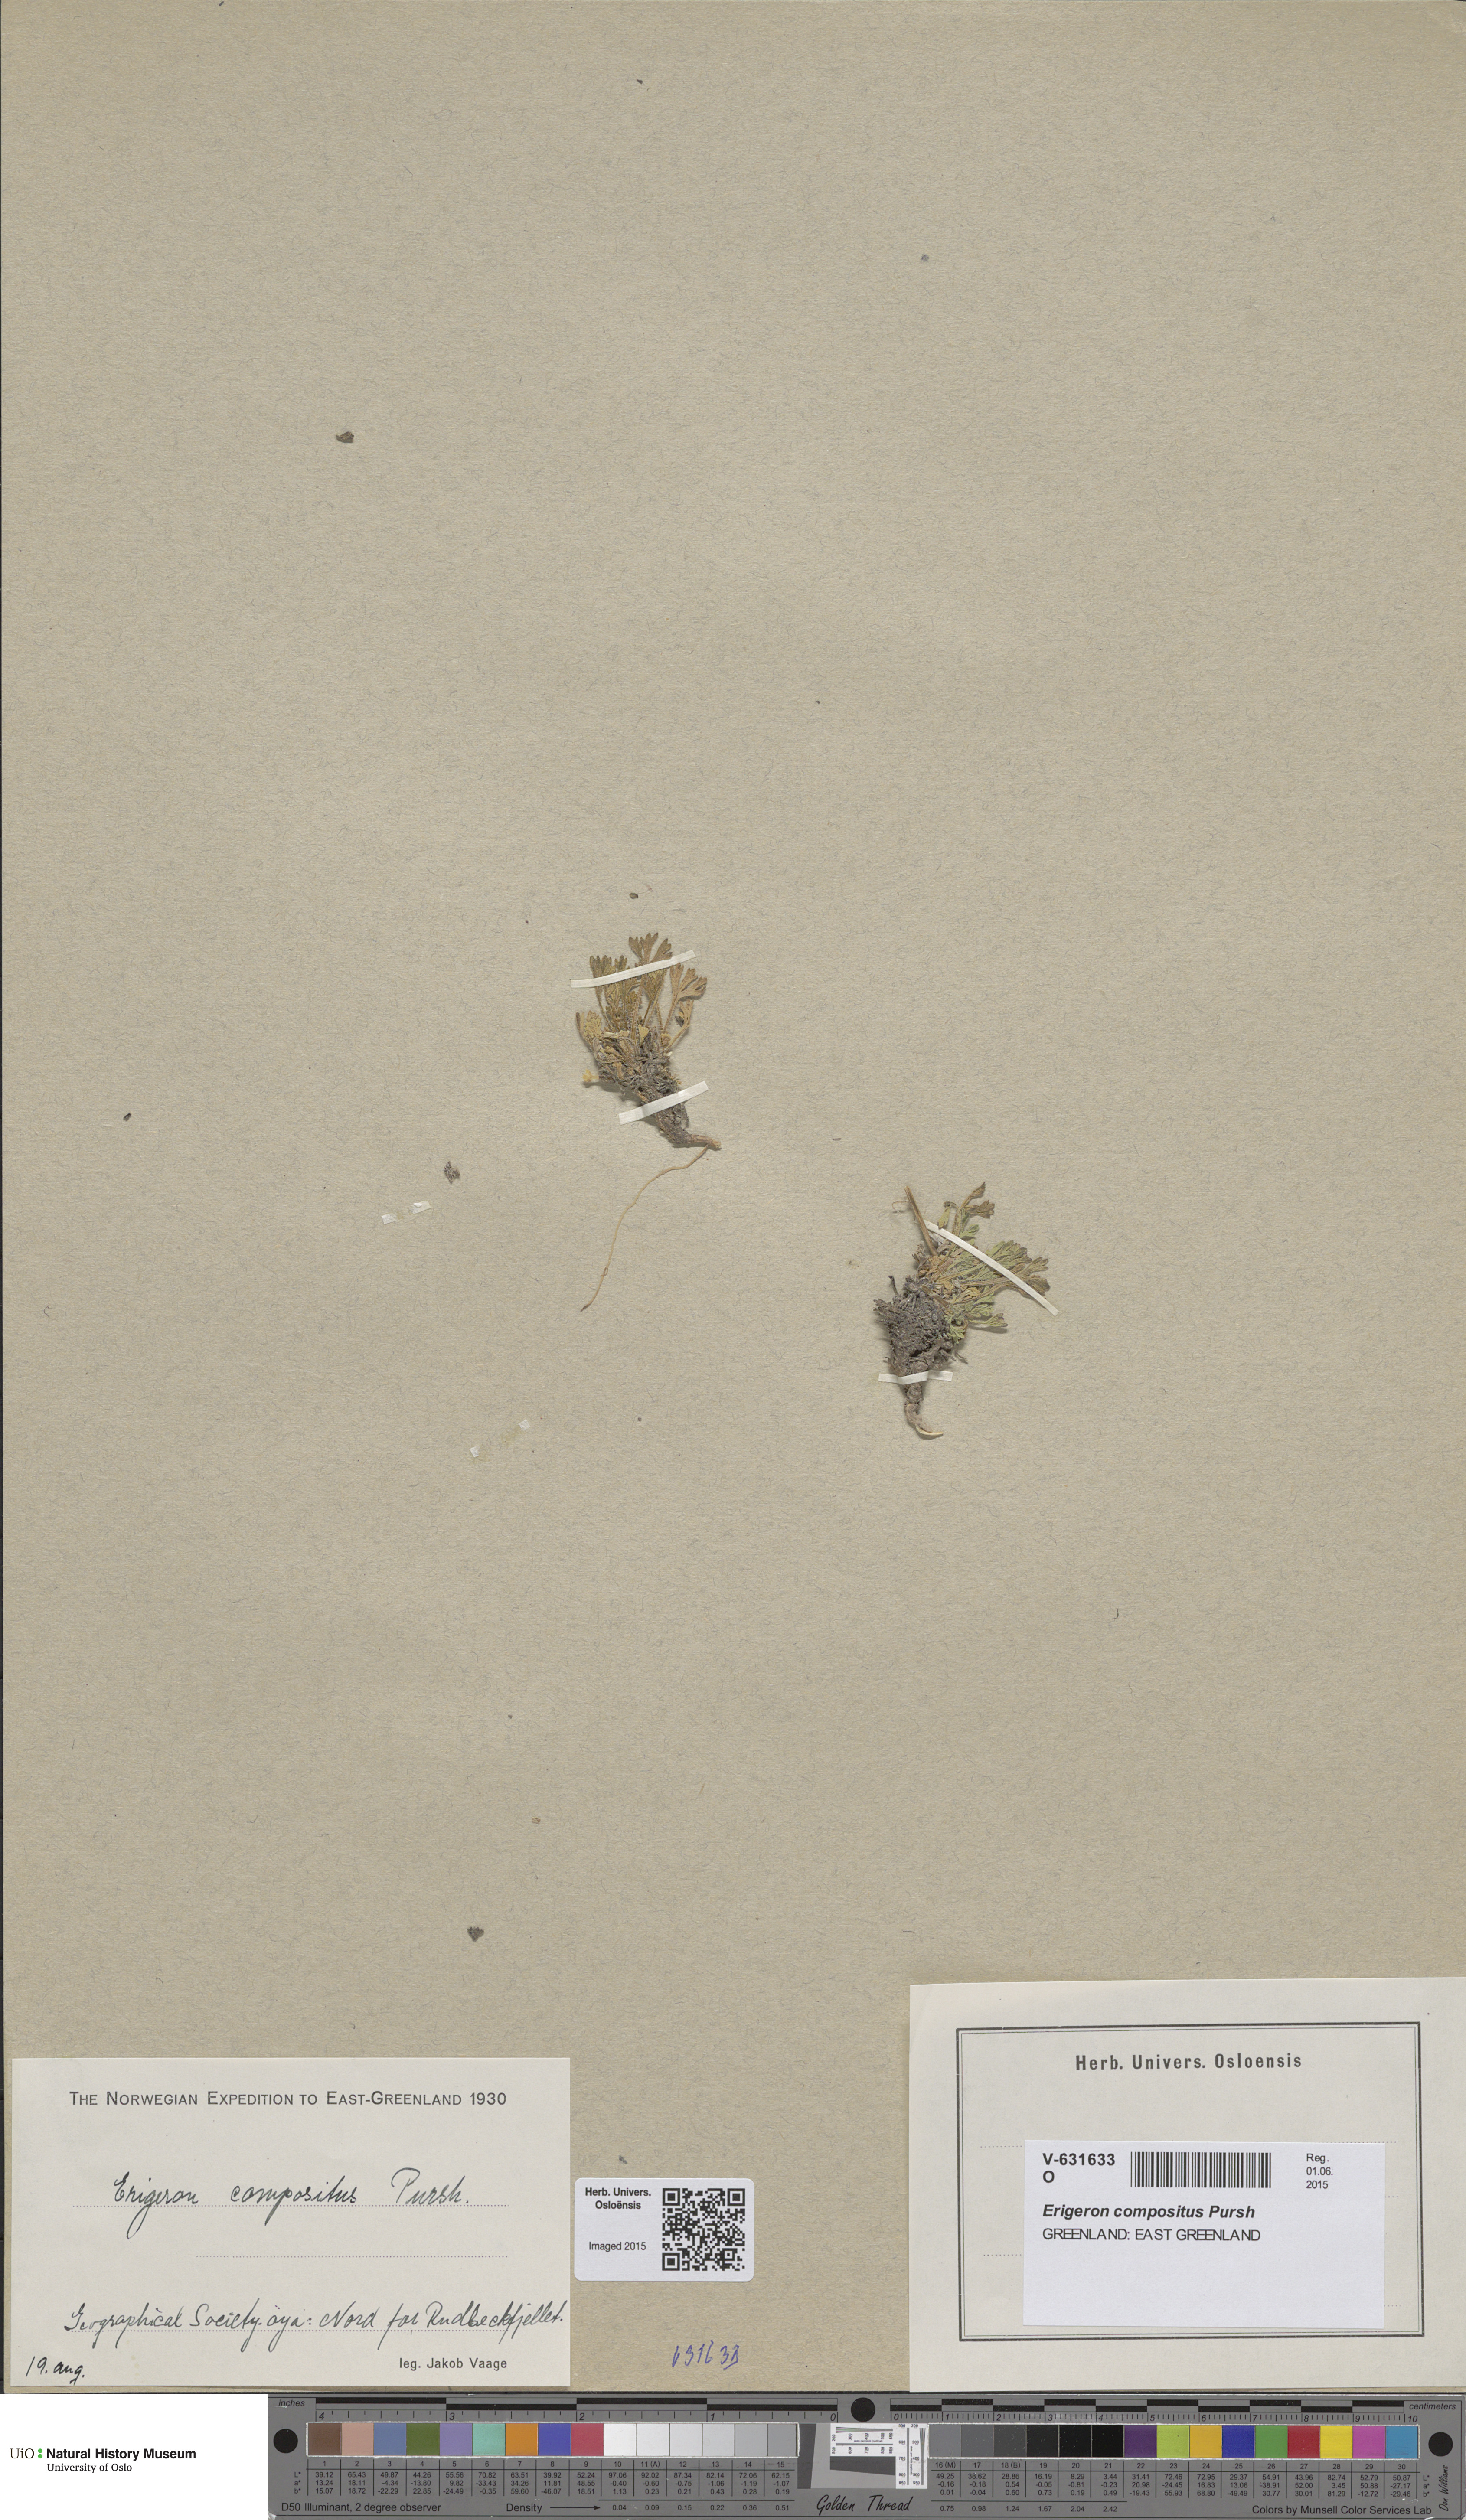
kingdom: Plantae
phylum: Tracheophyta
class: Magnoliopsida
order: Asterales
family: Asteraceae
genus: Erigeron
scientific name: Erigeron compositus
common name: Dwarf mountain fleabane
